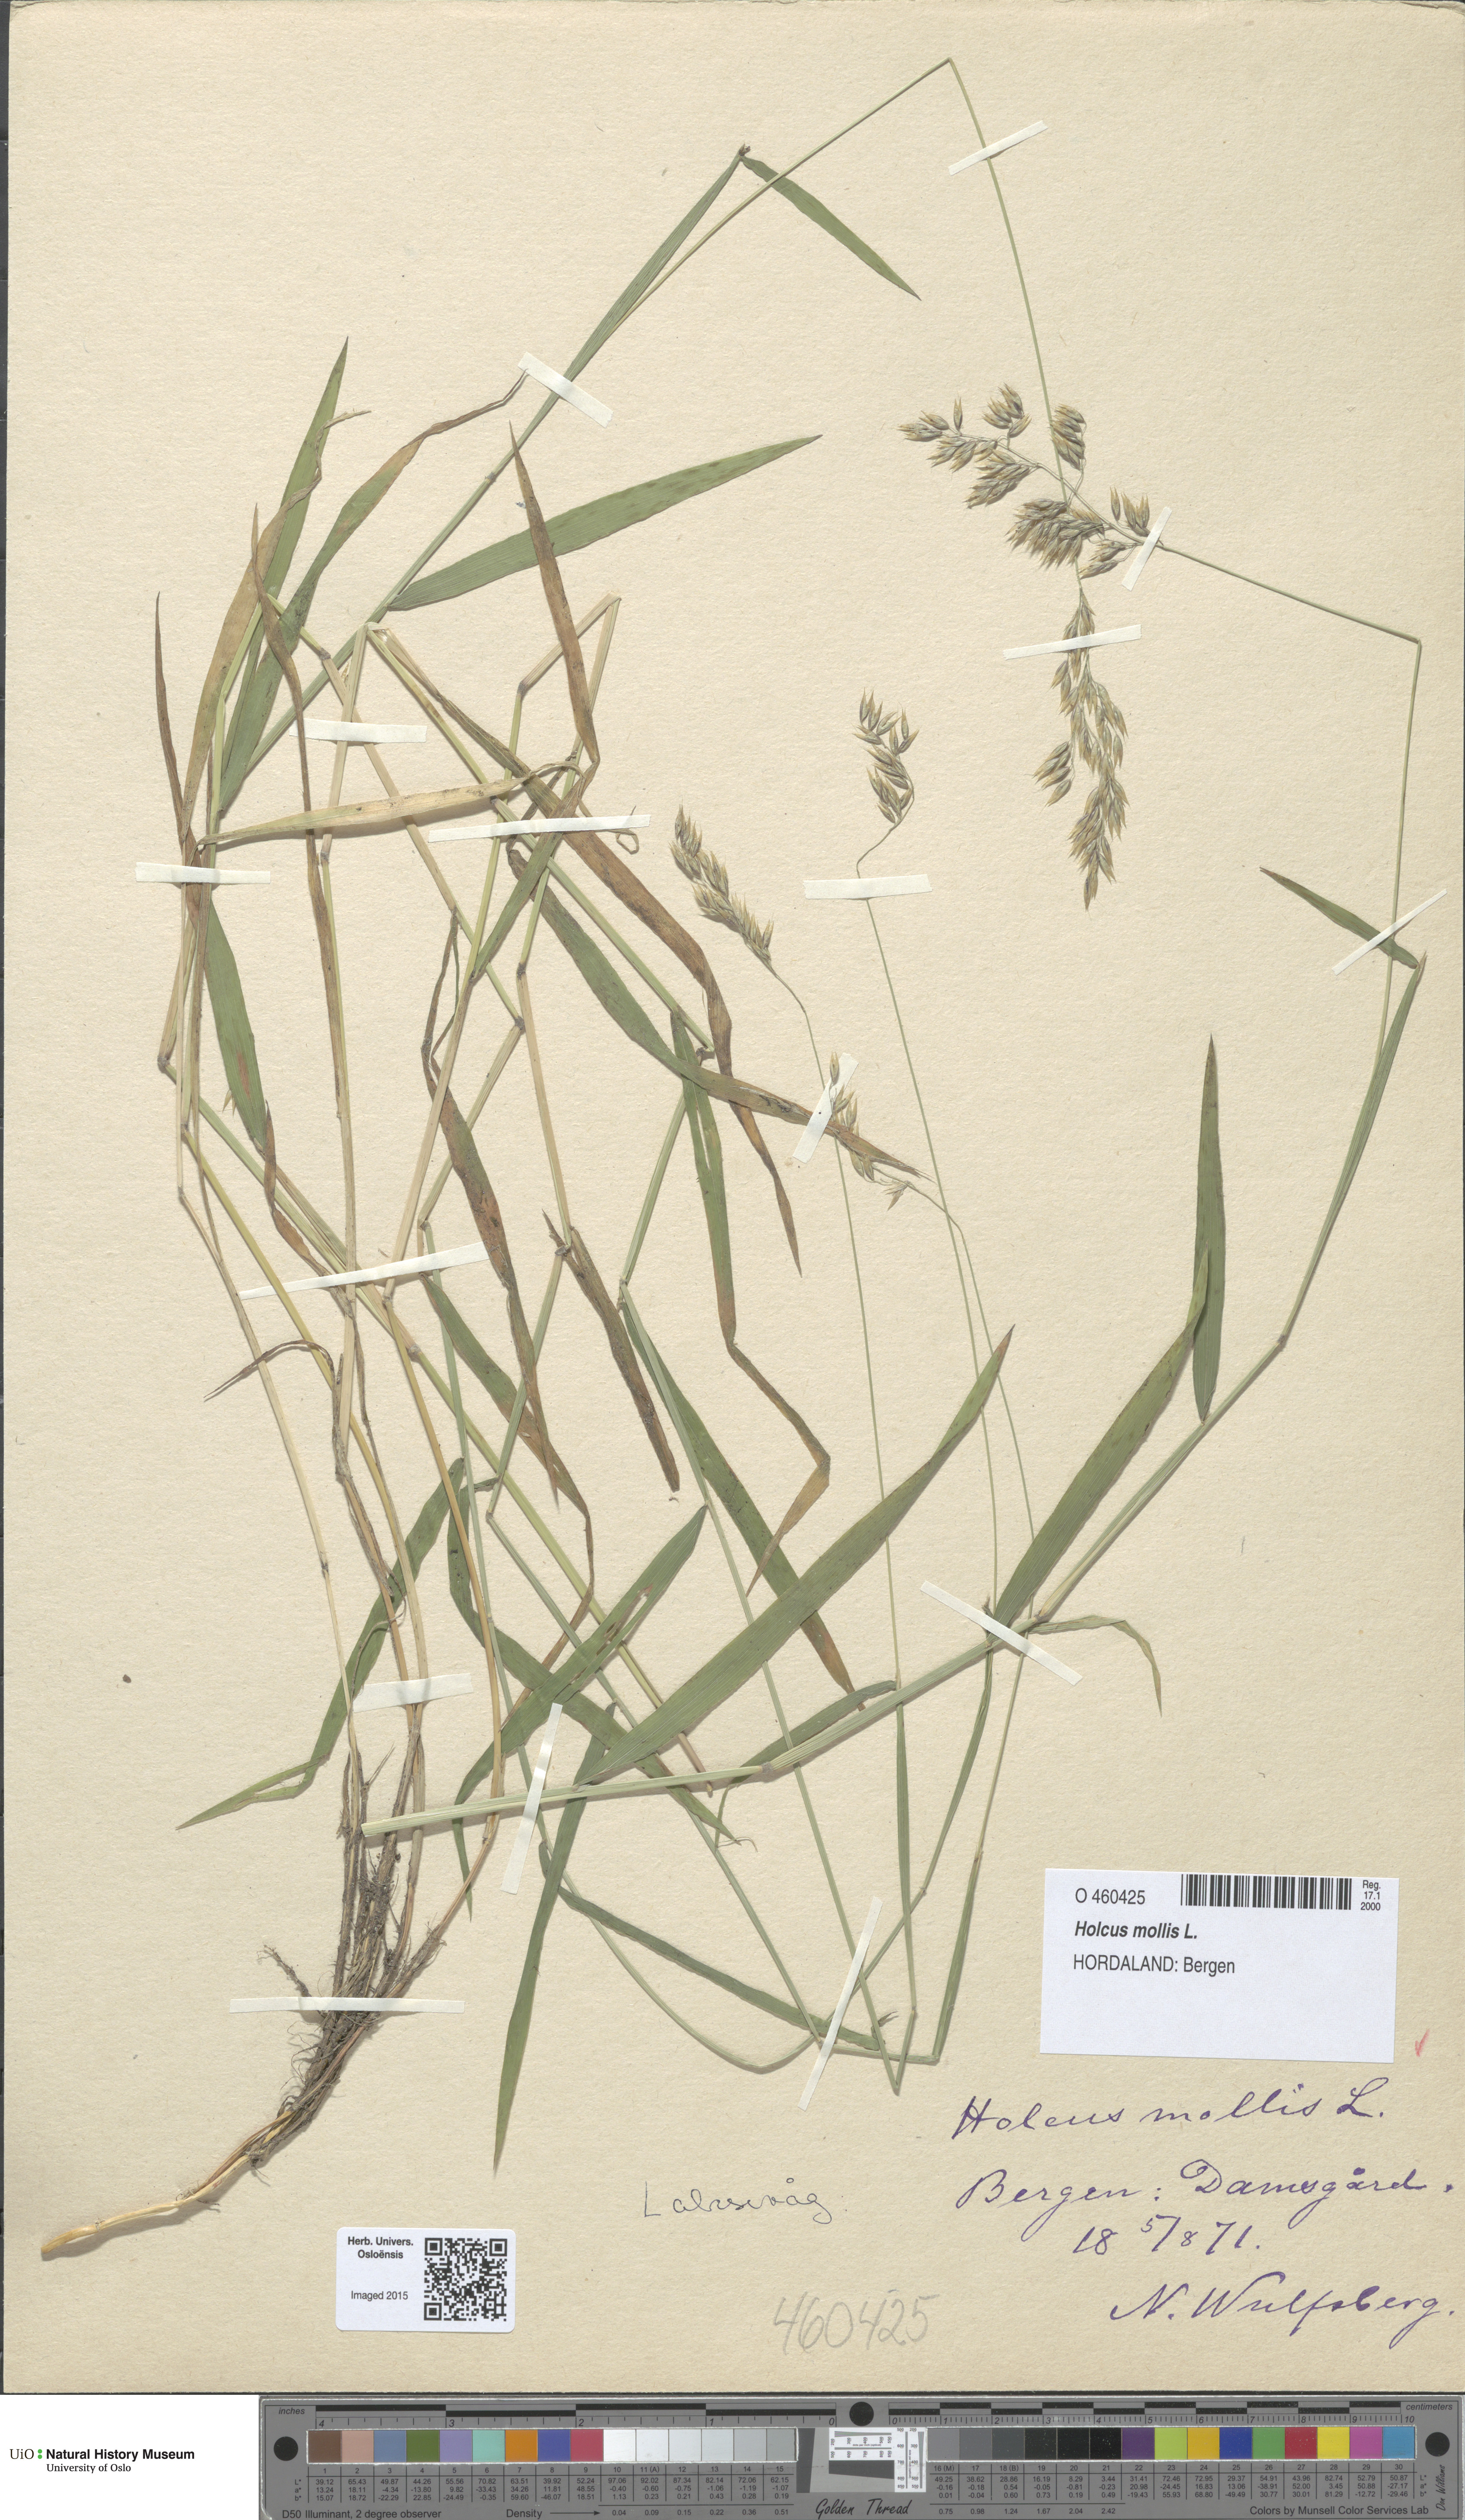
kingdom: Plantae
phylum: Tracheophyta
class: Liliopsida
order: Poales
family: Poaceae
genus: Holcus
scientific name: Holcus mollis
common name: Creeping velvetgrass
